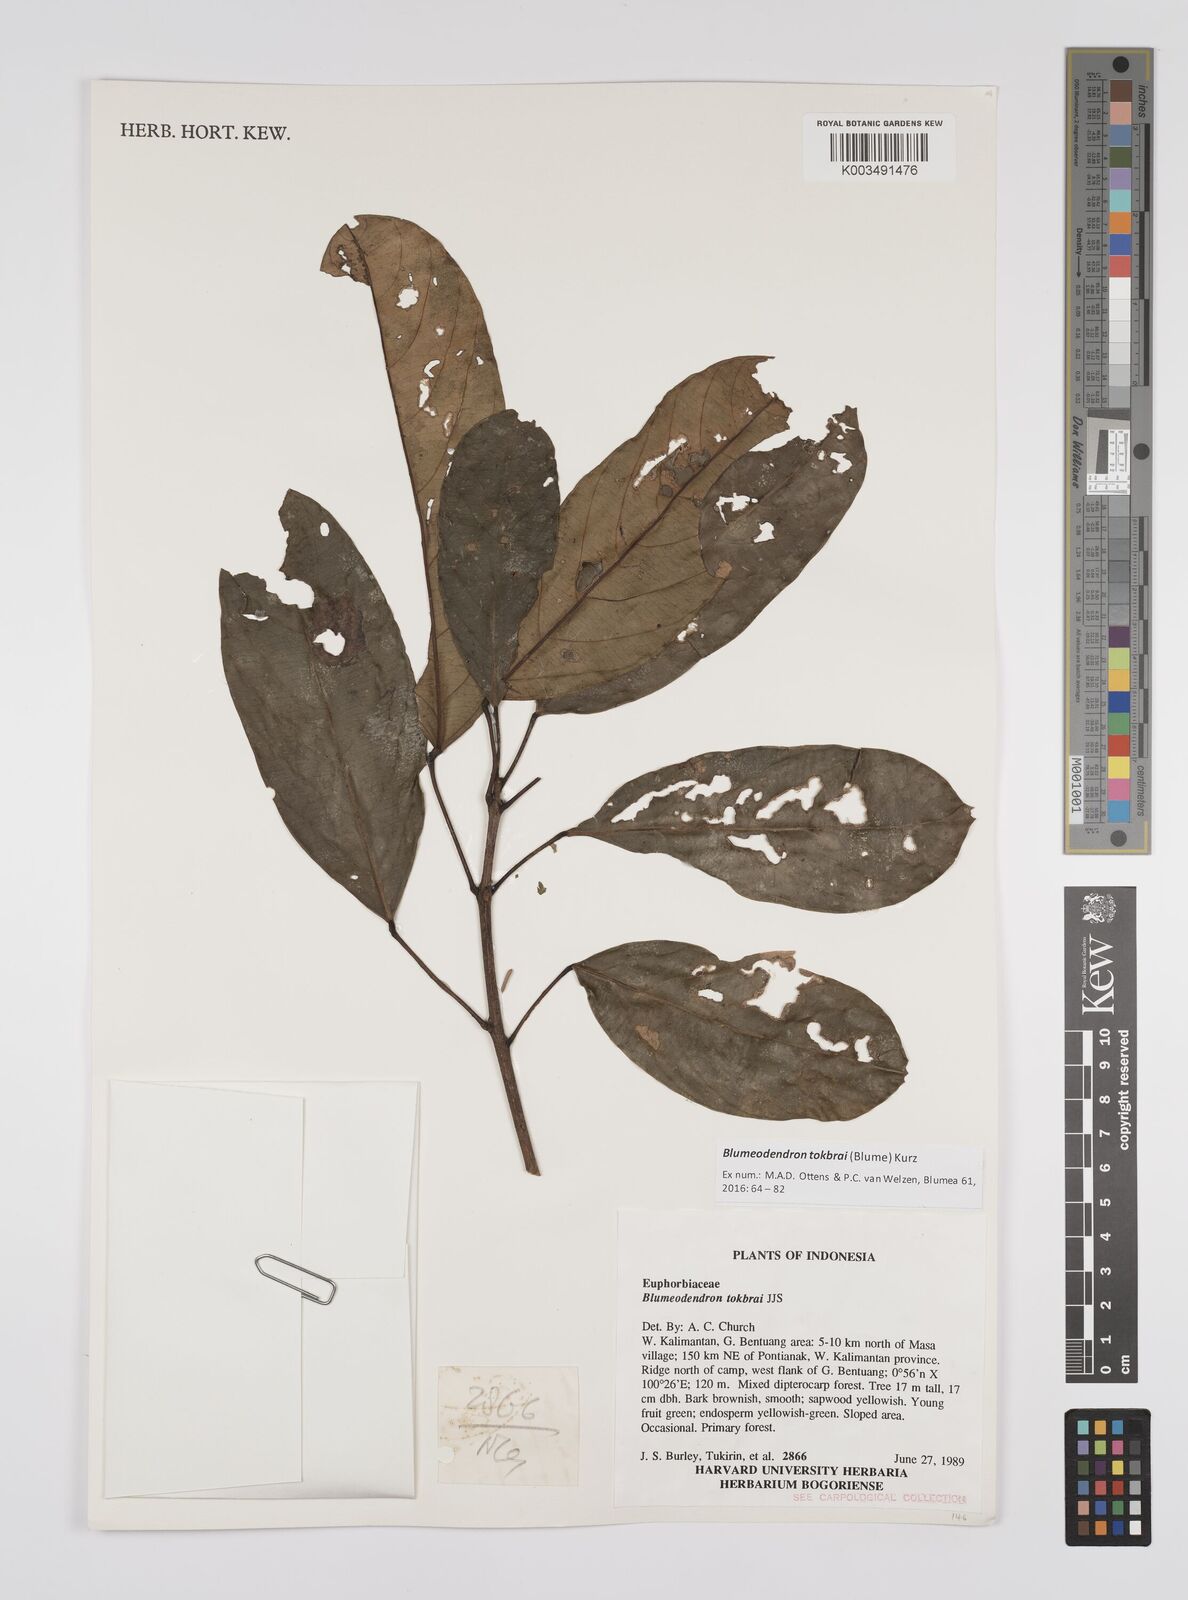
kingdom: Plantae
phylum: Tracheophyta
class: Magnoliopsida
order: Malpighiales
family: Euphorbiaceae
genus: Blumeodendron
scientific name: Blumeodendron tokbrai
